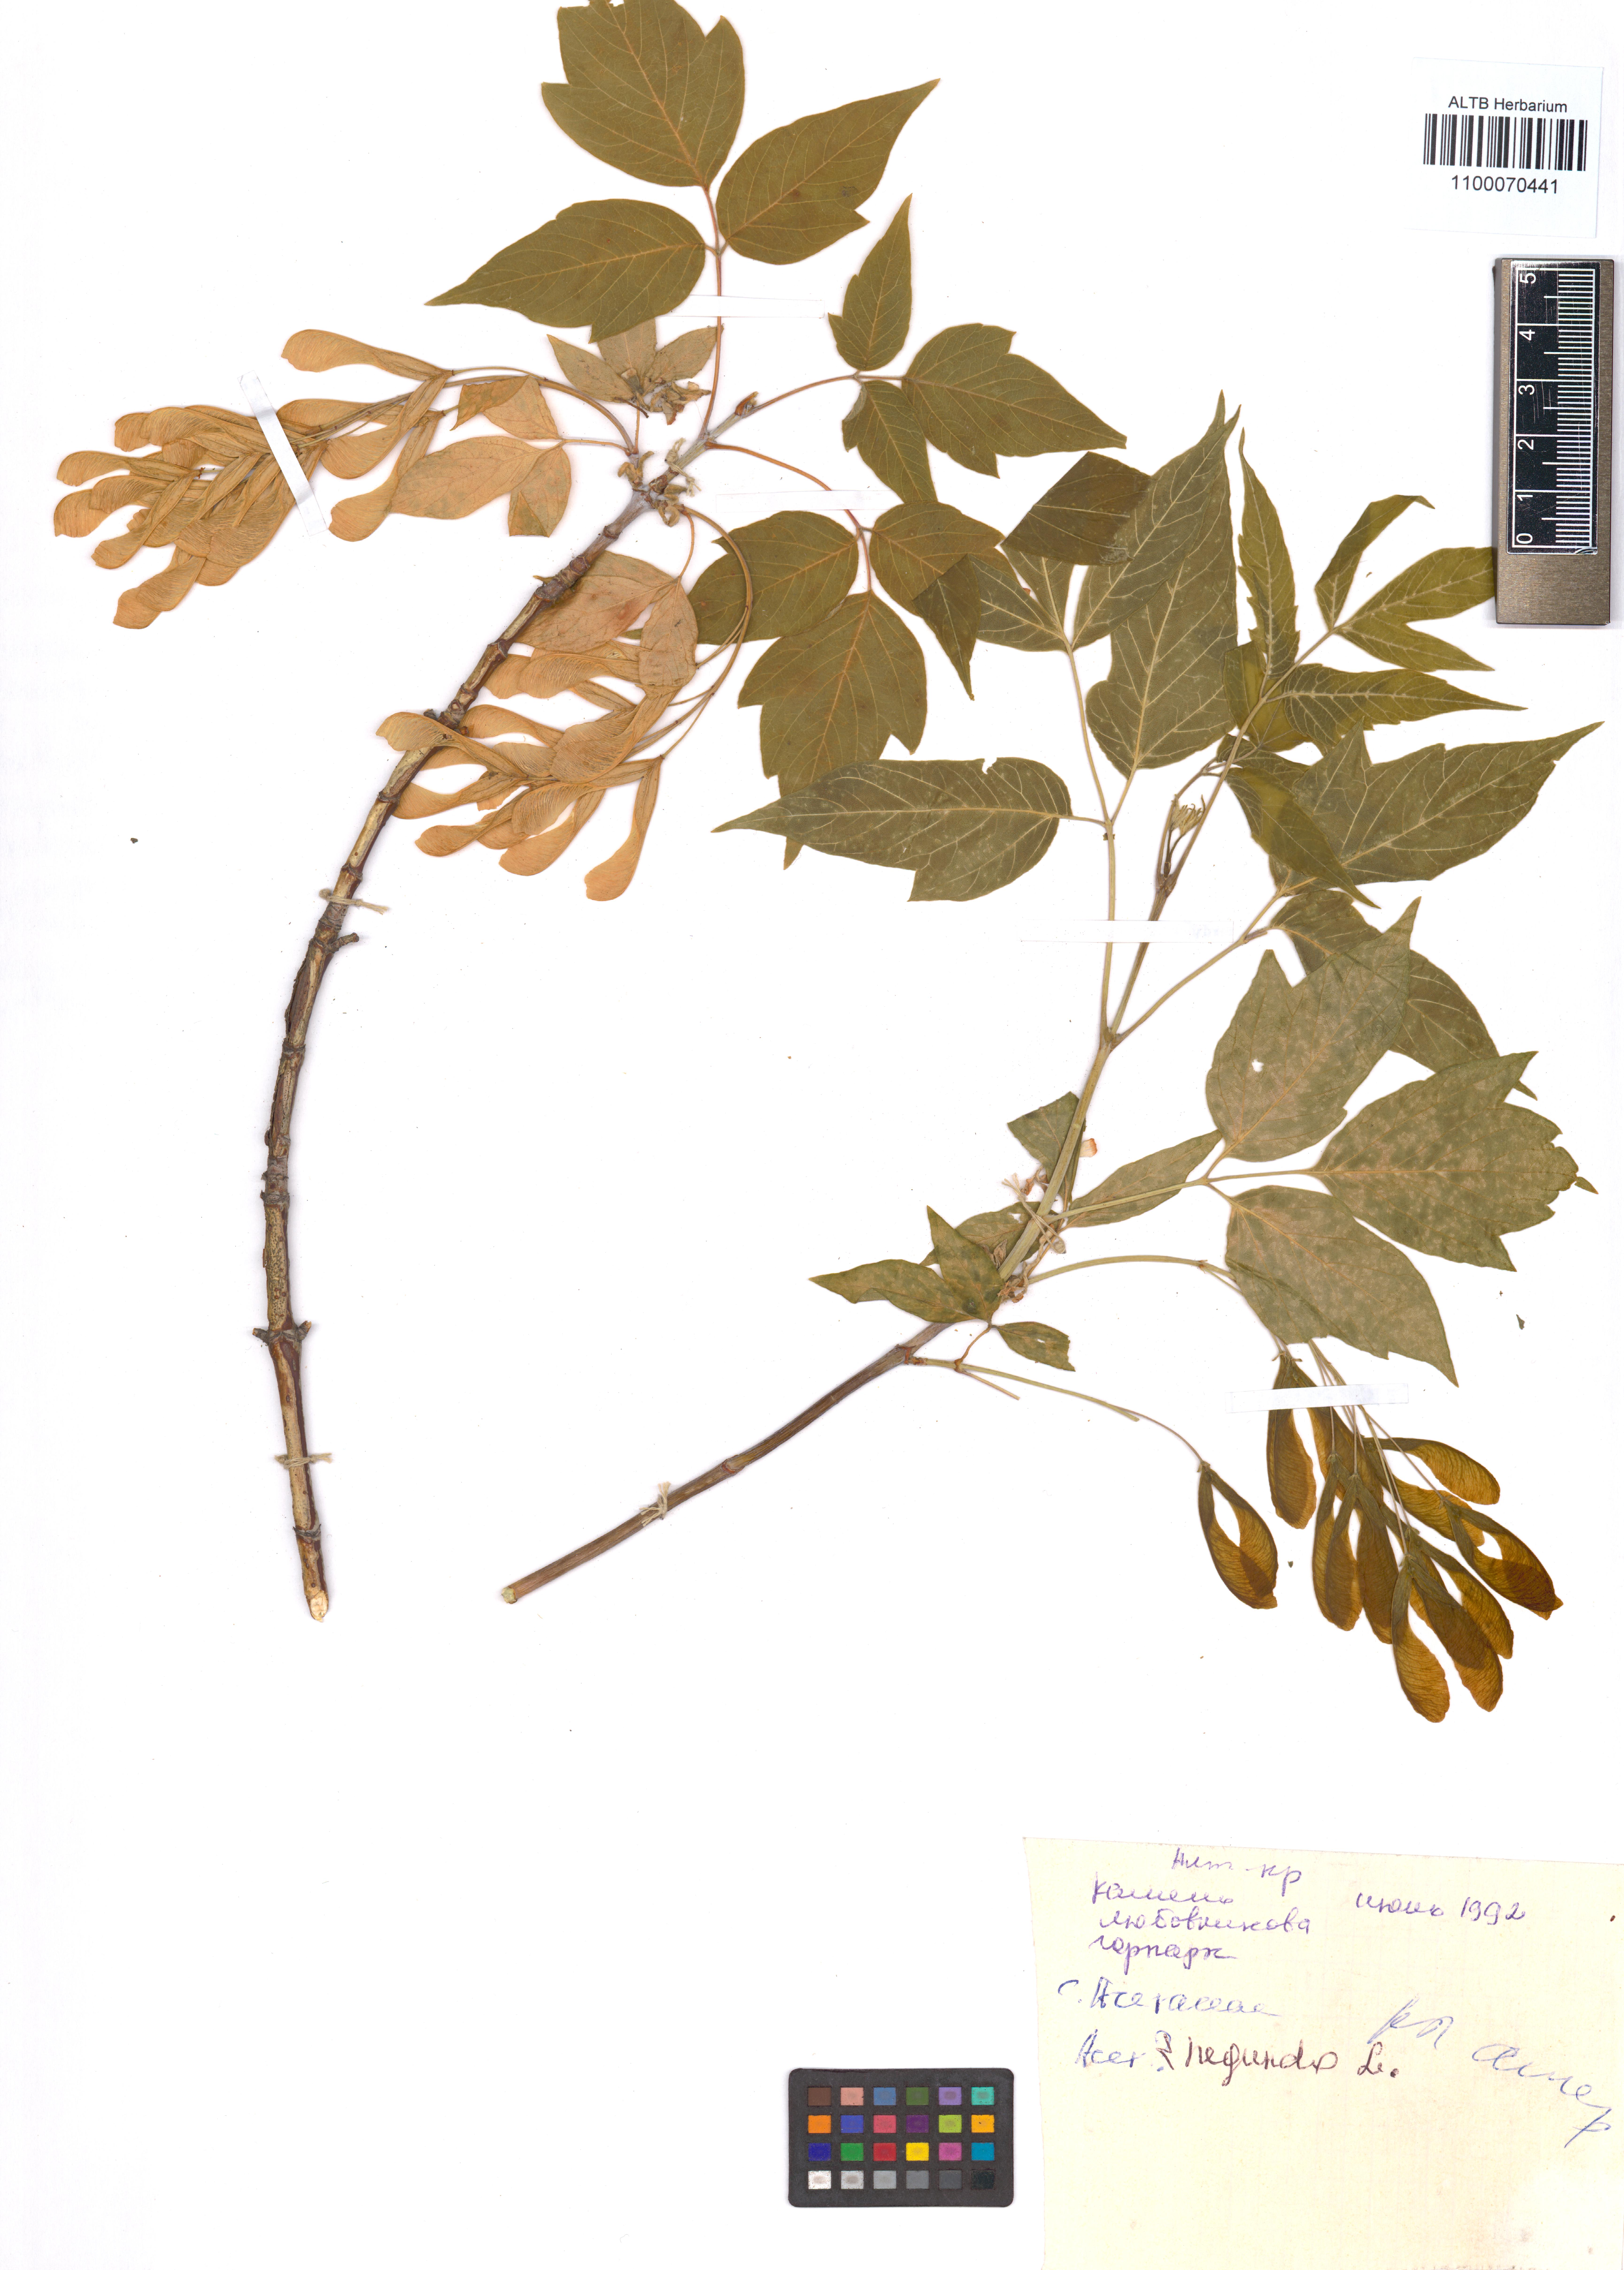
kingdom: Plantae
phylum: Tracheophyta
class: Magnoliopsida
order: Sapindales
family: Sapindaceae
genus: Acer
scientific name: Acer negundo
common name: Ashleaf maple
